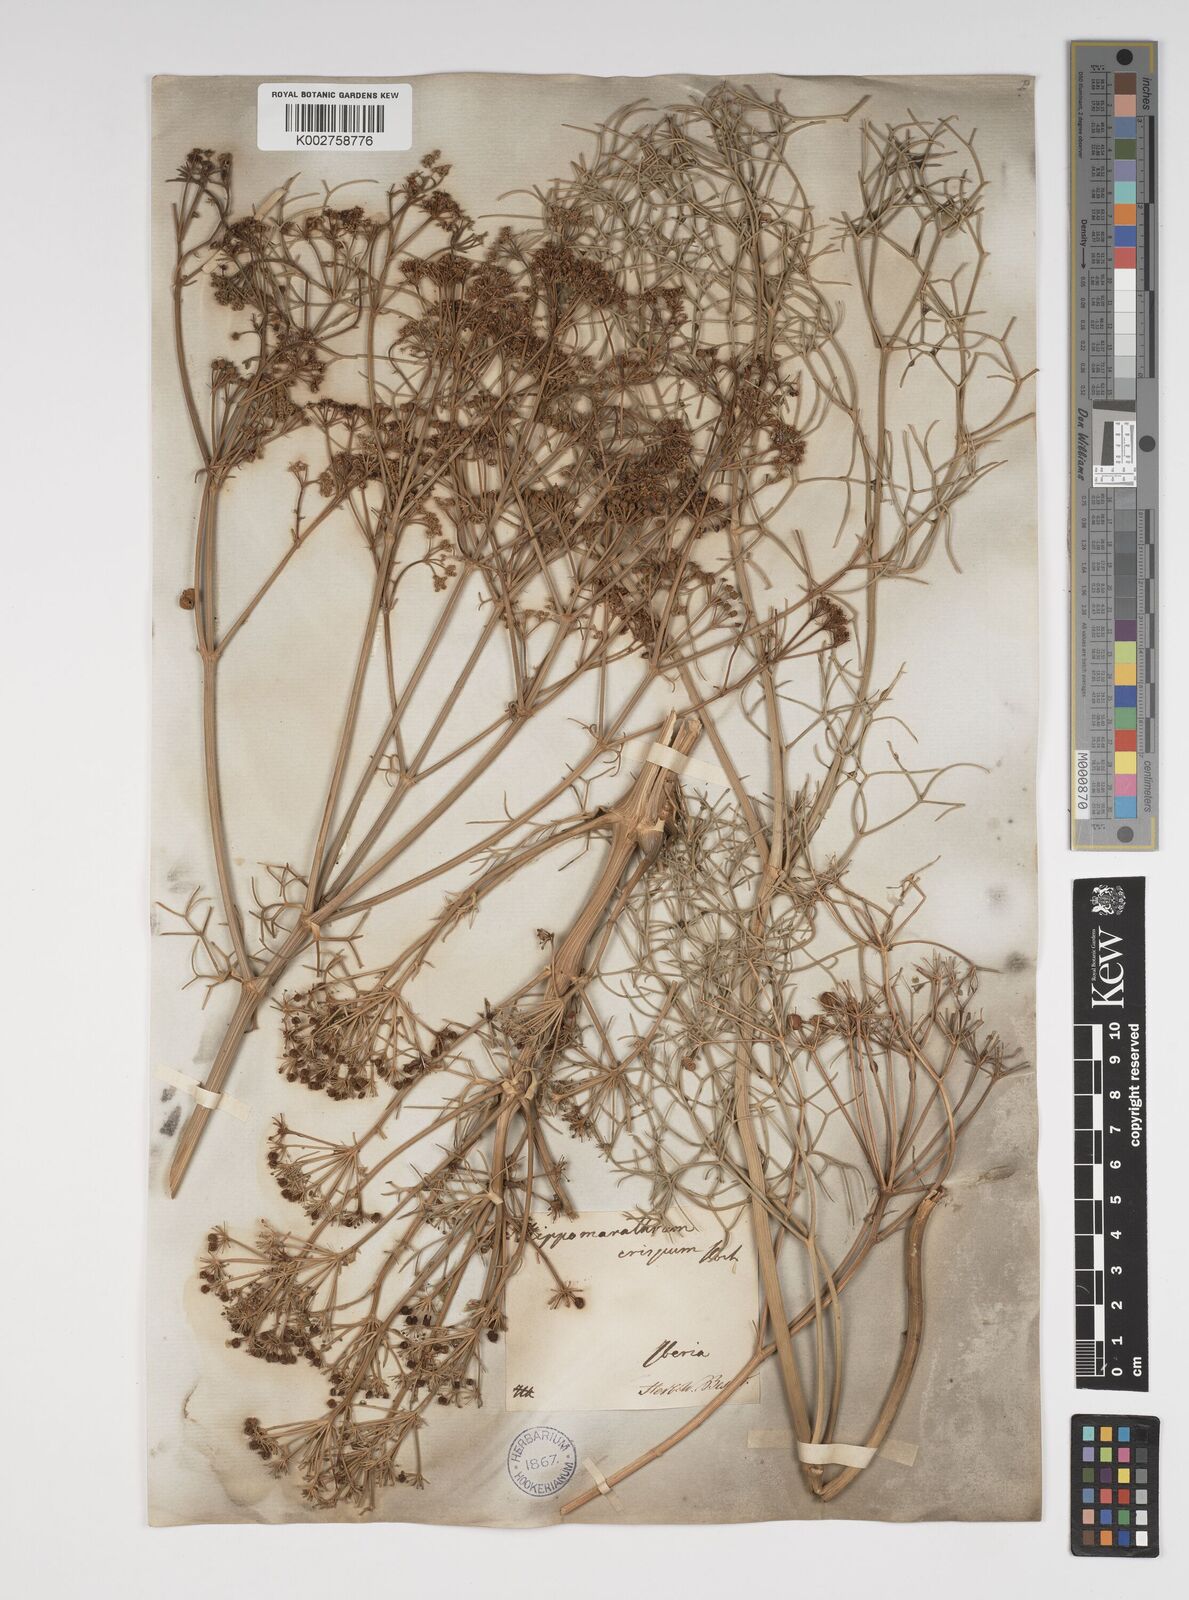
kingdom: Plantae
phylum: Tracheophyta
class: Magnoliopsida
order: Apiales
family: Apiaceae
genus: Bilacunaria
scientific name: Bilacunaria microcarpa
